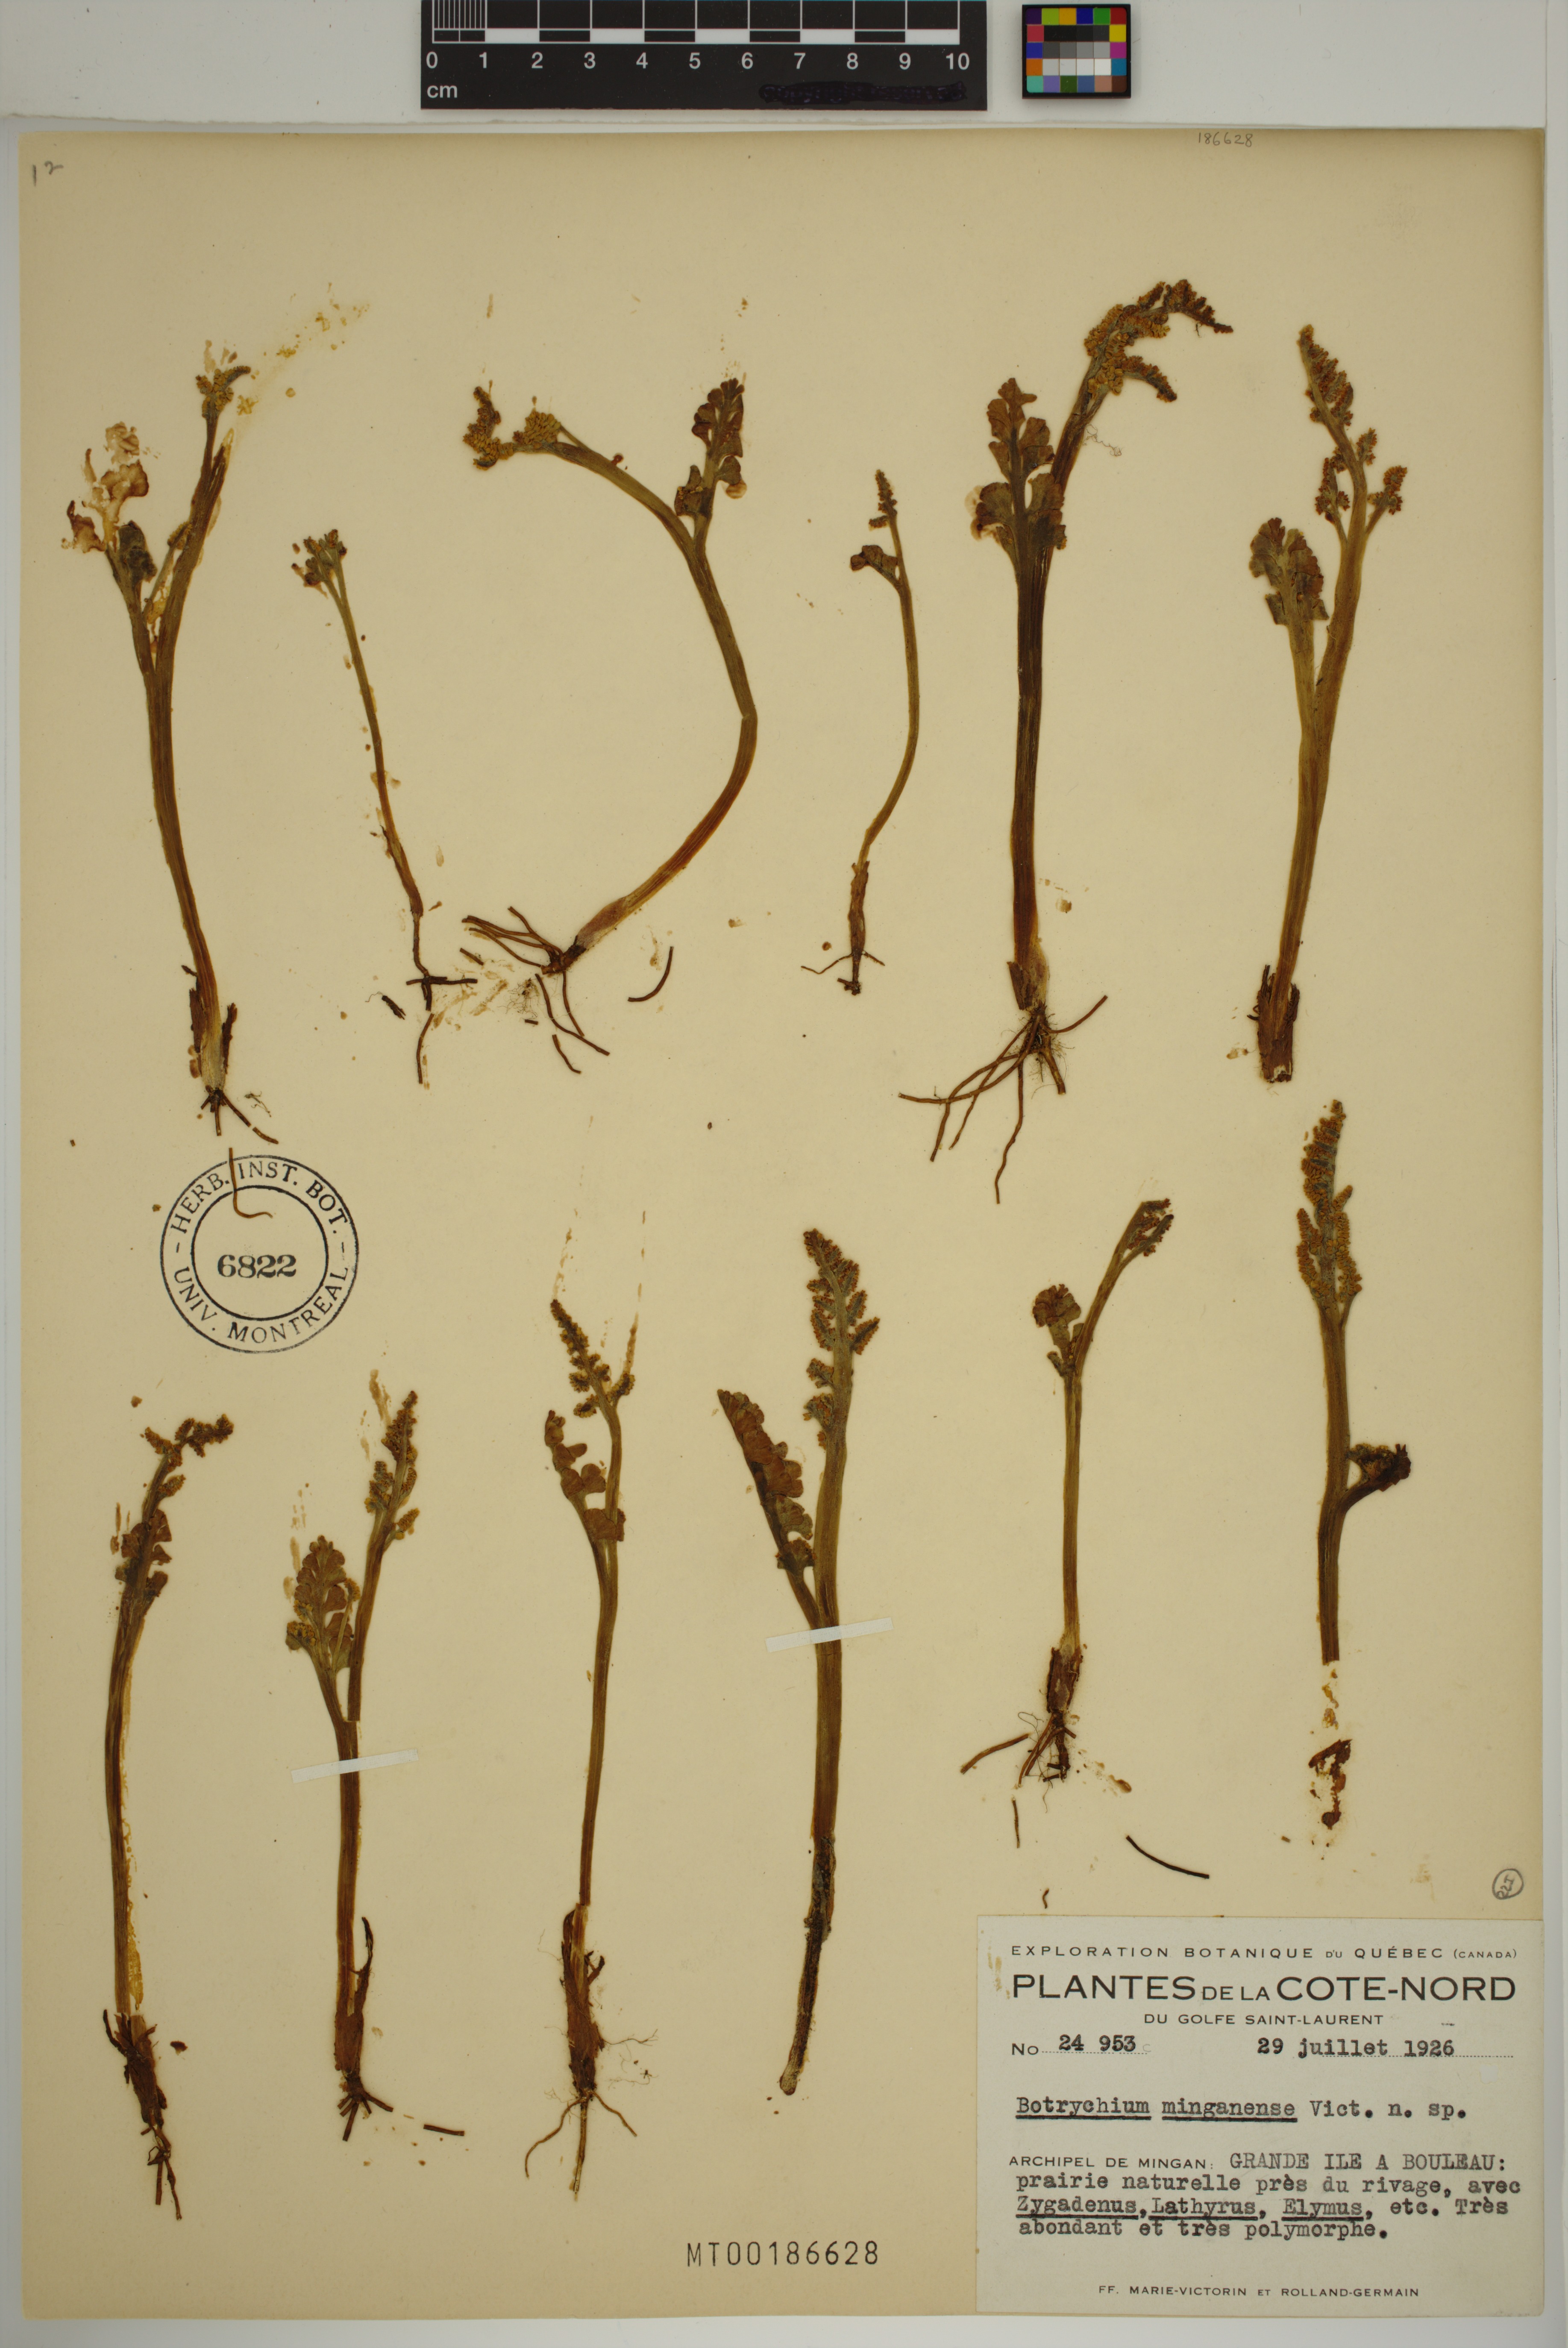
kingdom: Plantae
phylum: Tracheophyta
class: Polypodiopsida
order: Ophioglossales
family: Ophioglossaceae
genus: Botrychium
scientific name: Botrychium minganense
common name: Mingan grapefern
